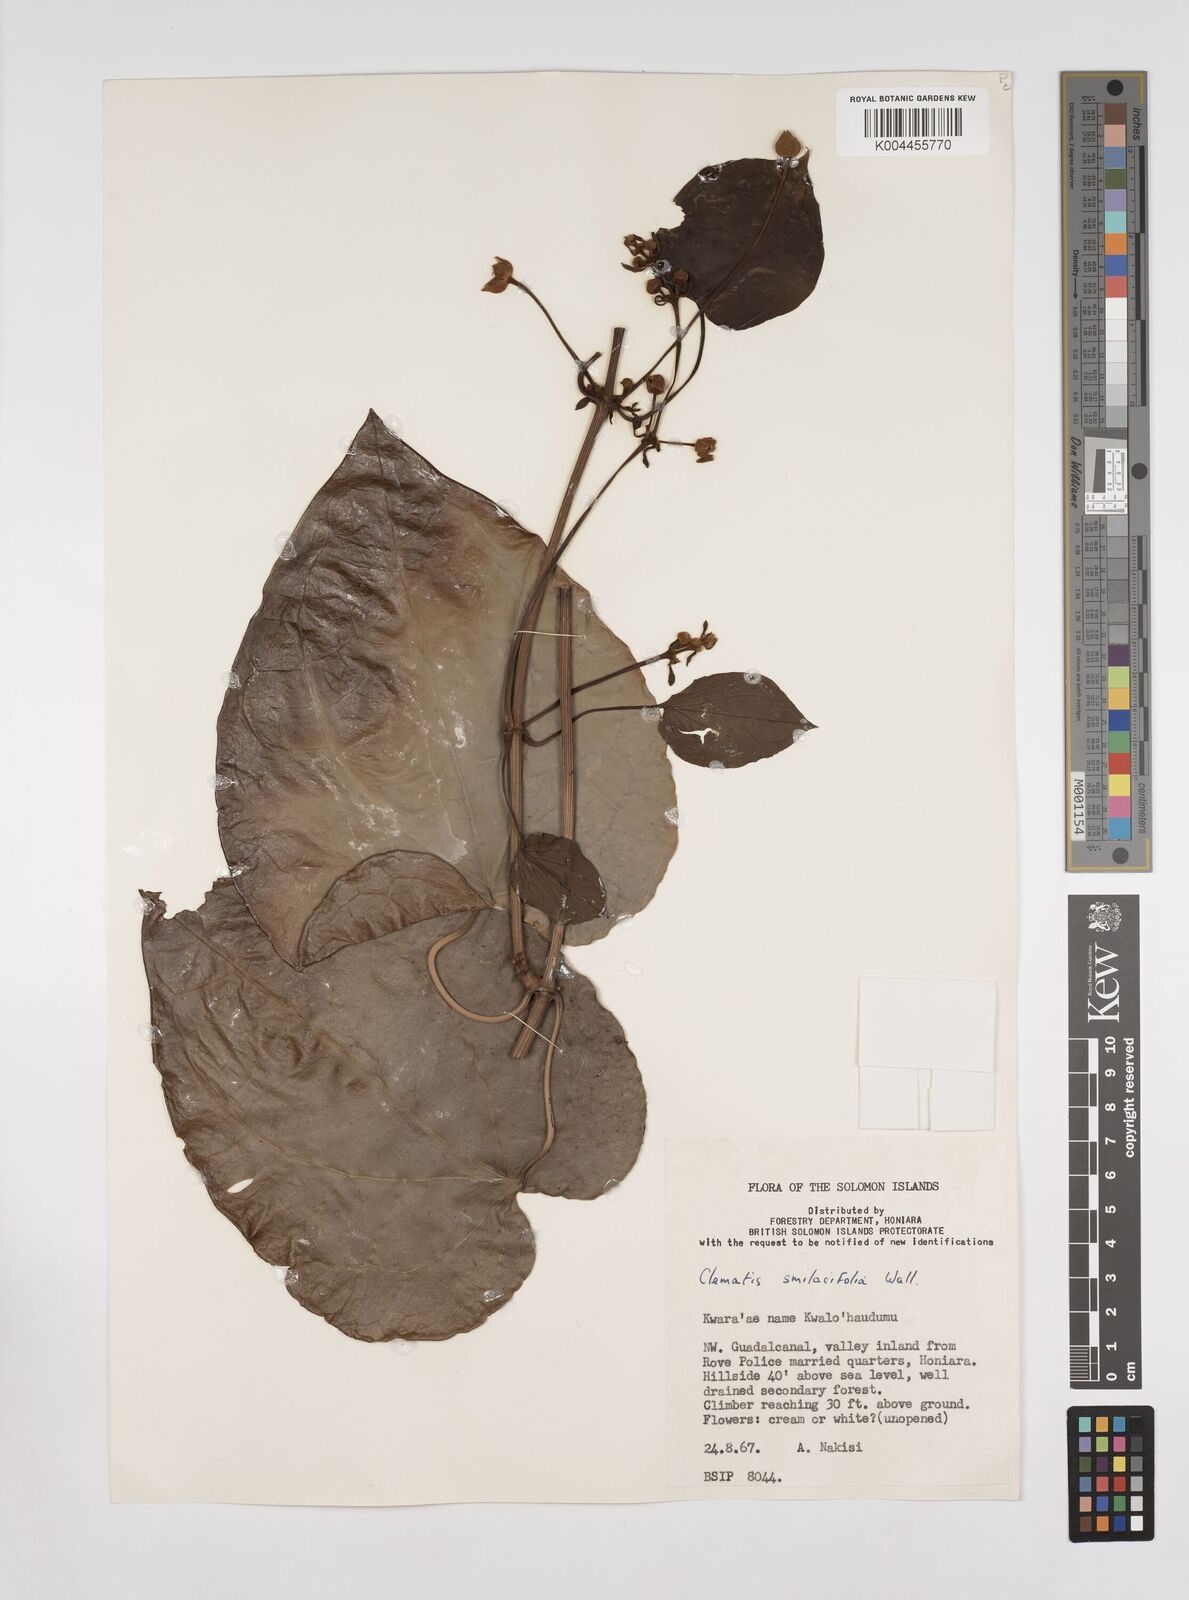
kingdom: Plantae
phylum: Tracheophyta
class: Magnoliopsida
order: Ranunculales
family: Ranunculaceae
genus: Clematis
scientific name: Clematis smilacifolia
